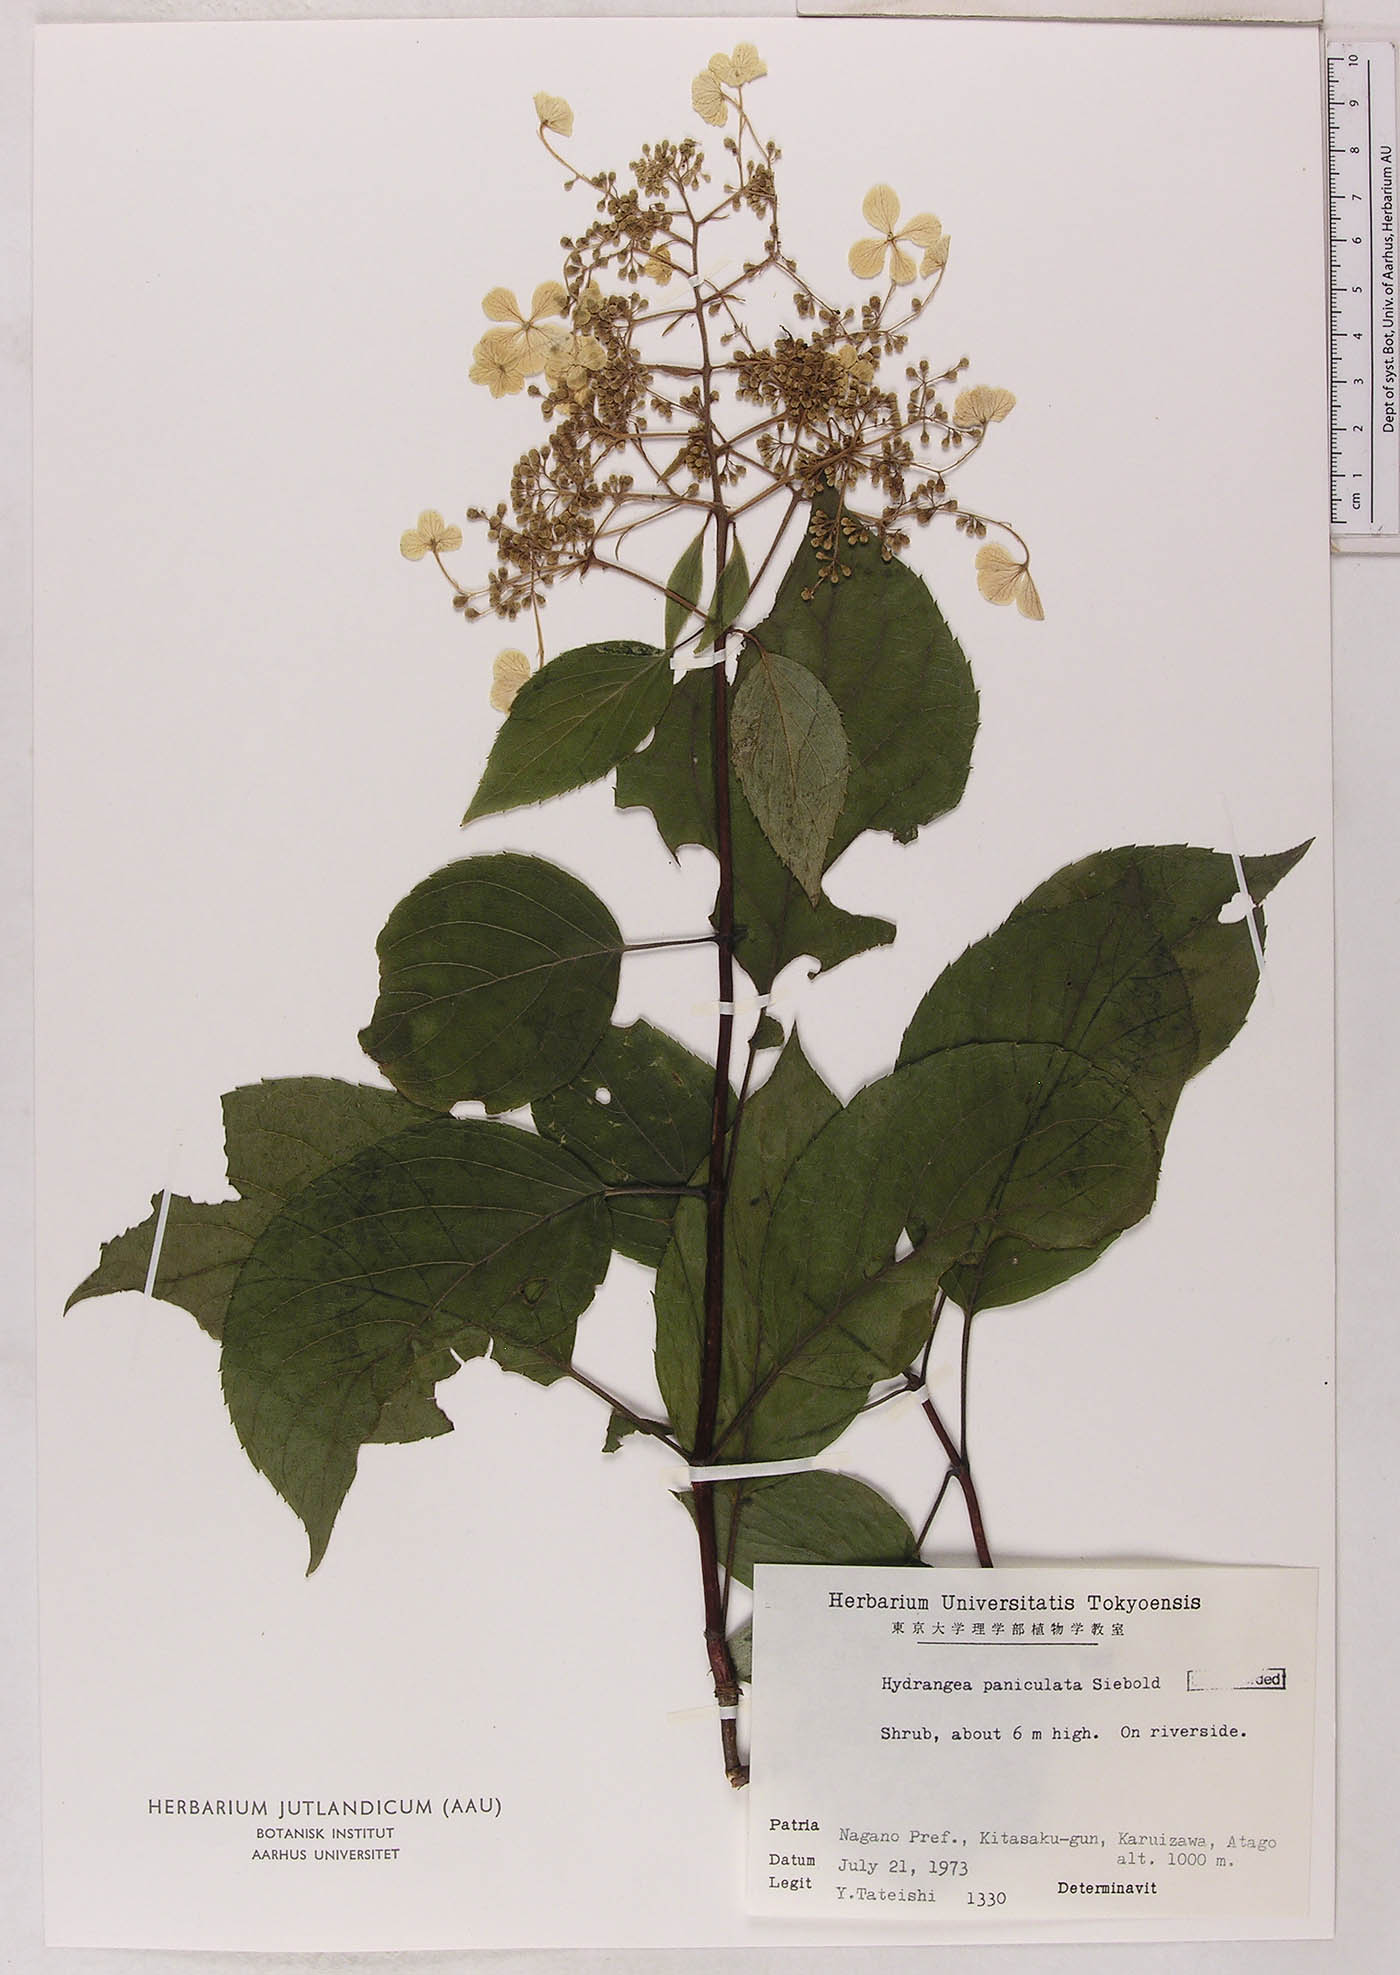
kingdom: Plantae
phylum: Tracheophyta
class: Magnoliopsida
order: Cornales
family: Hydrangeaceae
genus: Hydrangea
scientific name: Hydrangea paniculata
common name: Panicled hydrangea
